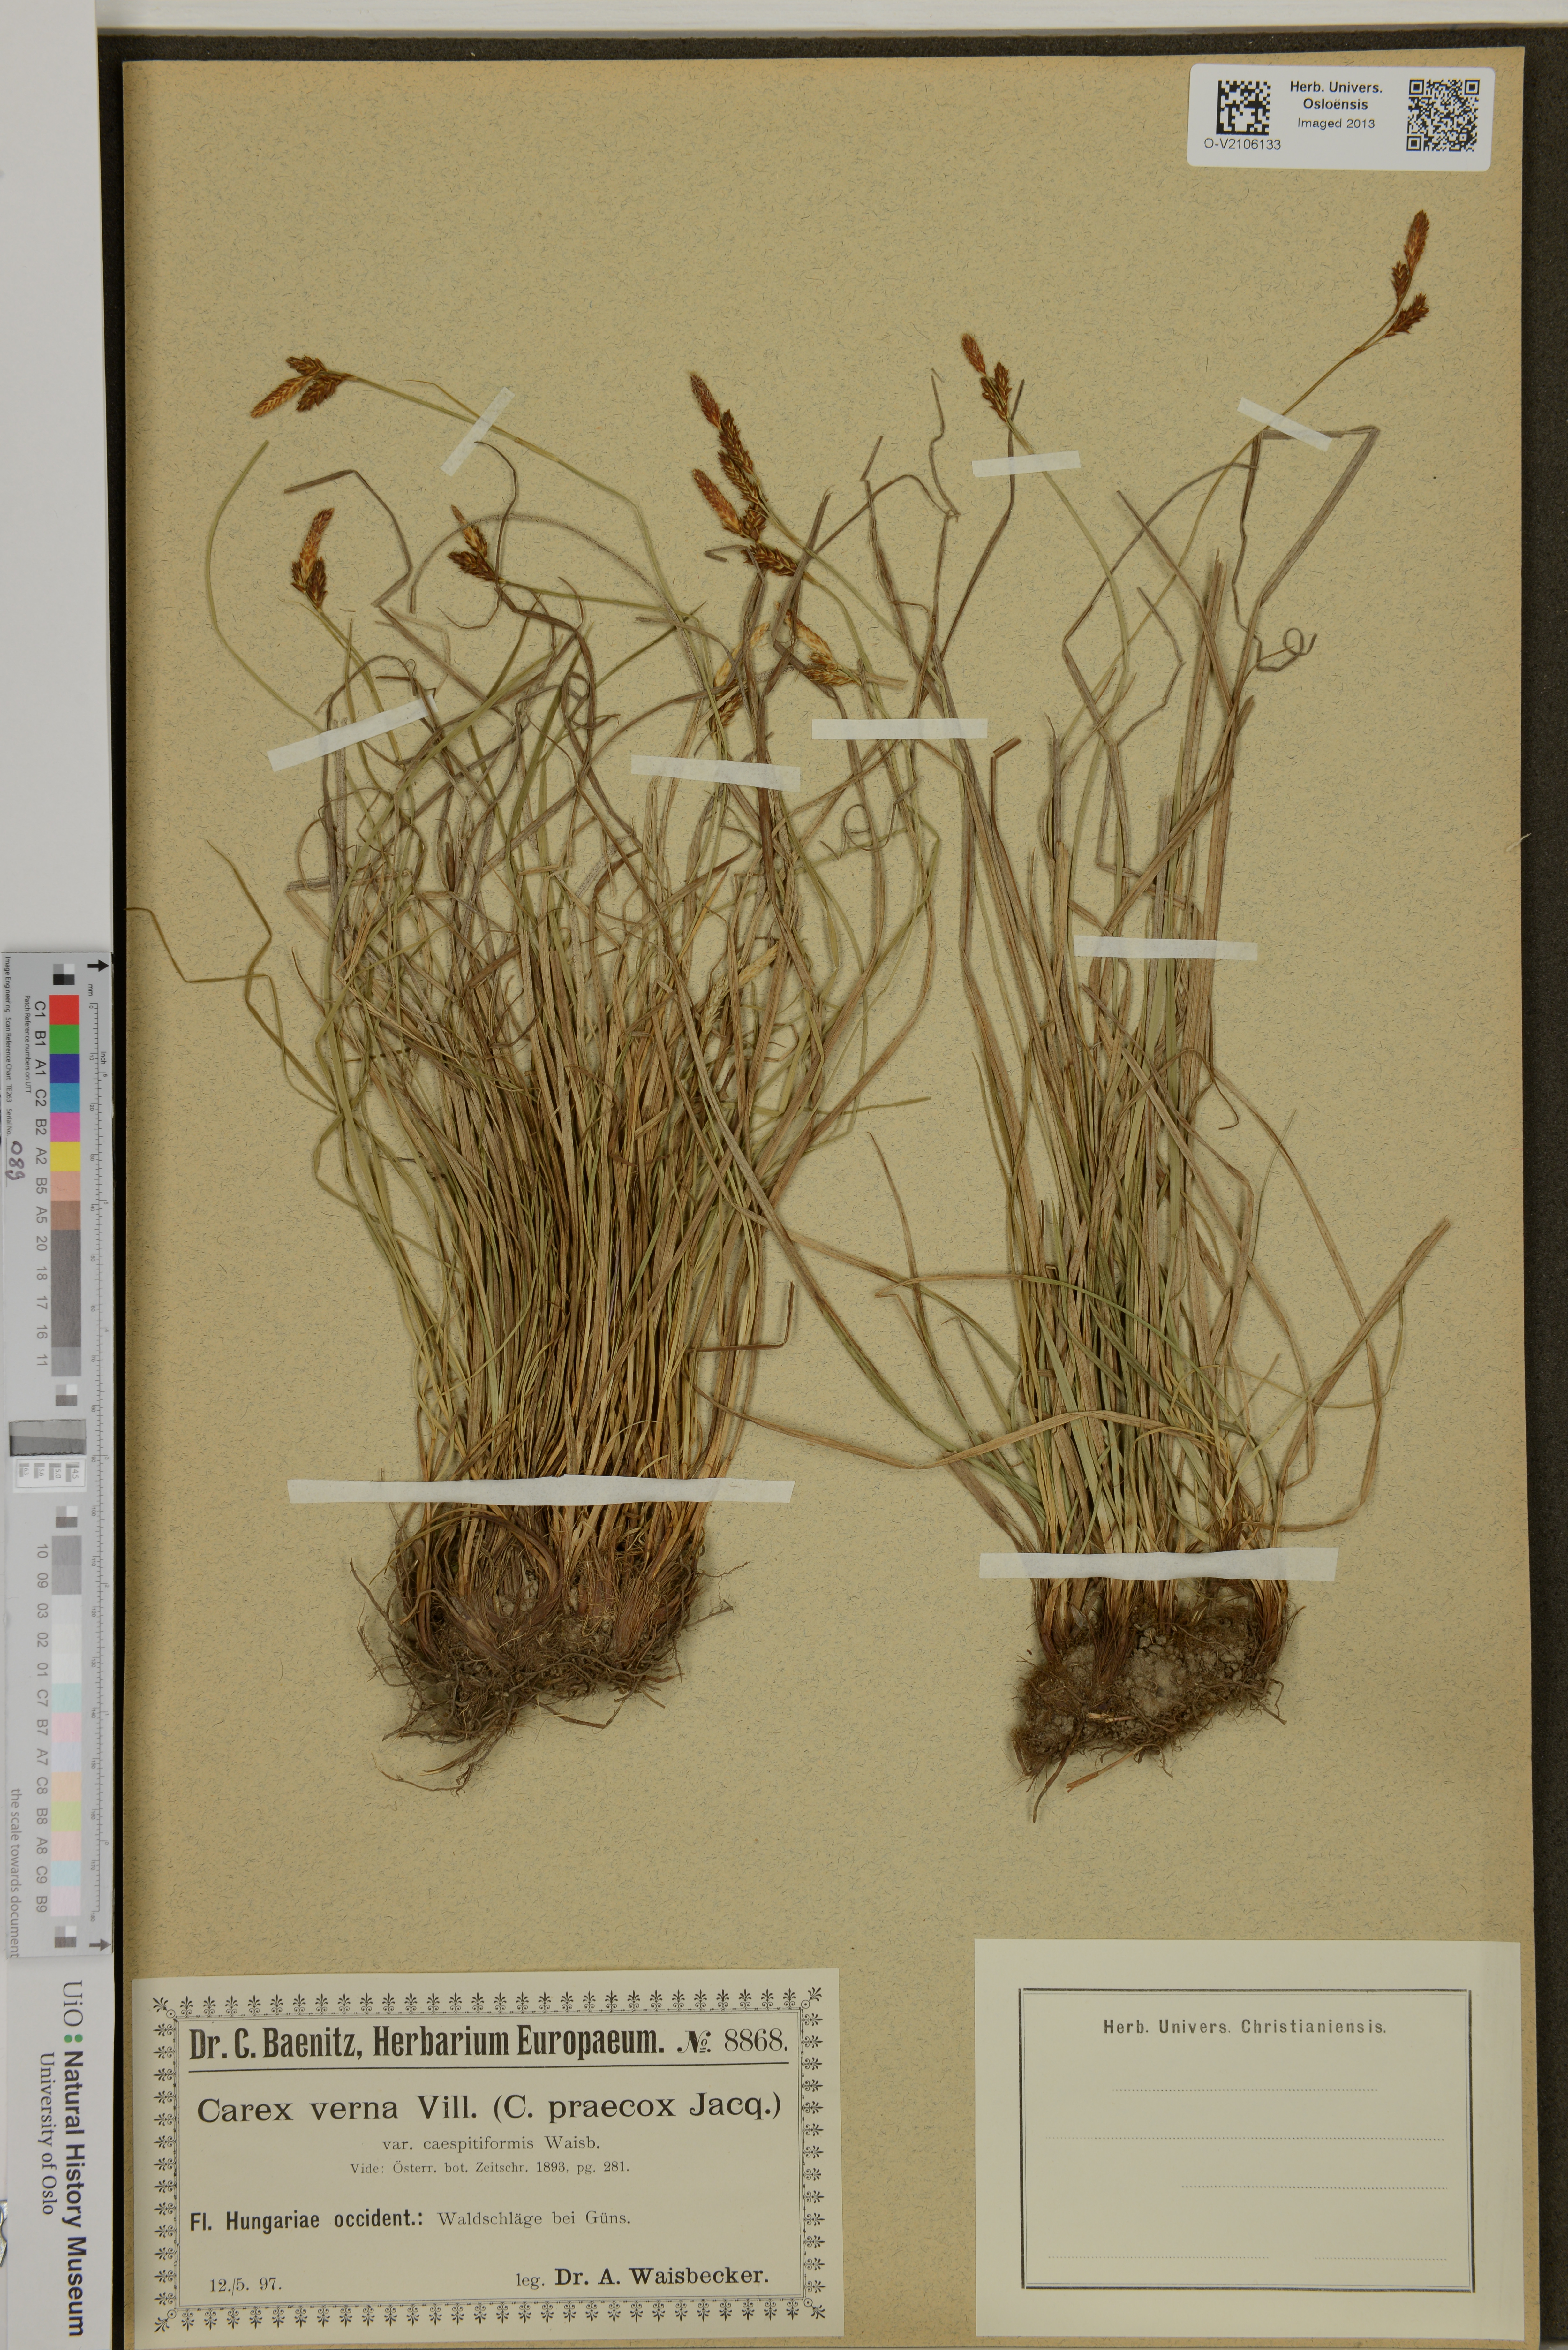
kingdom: Plantae
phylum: Tracheophyta
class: Liliopsida
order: Poales
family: Cyperaceae
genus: Carex
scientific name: Carex caryophyllea
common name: Spring sedge
